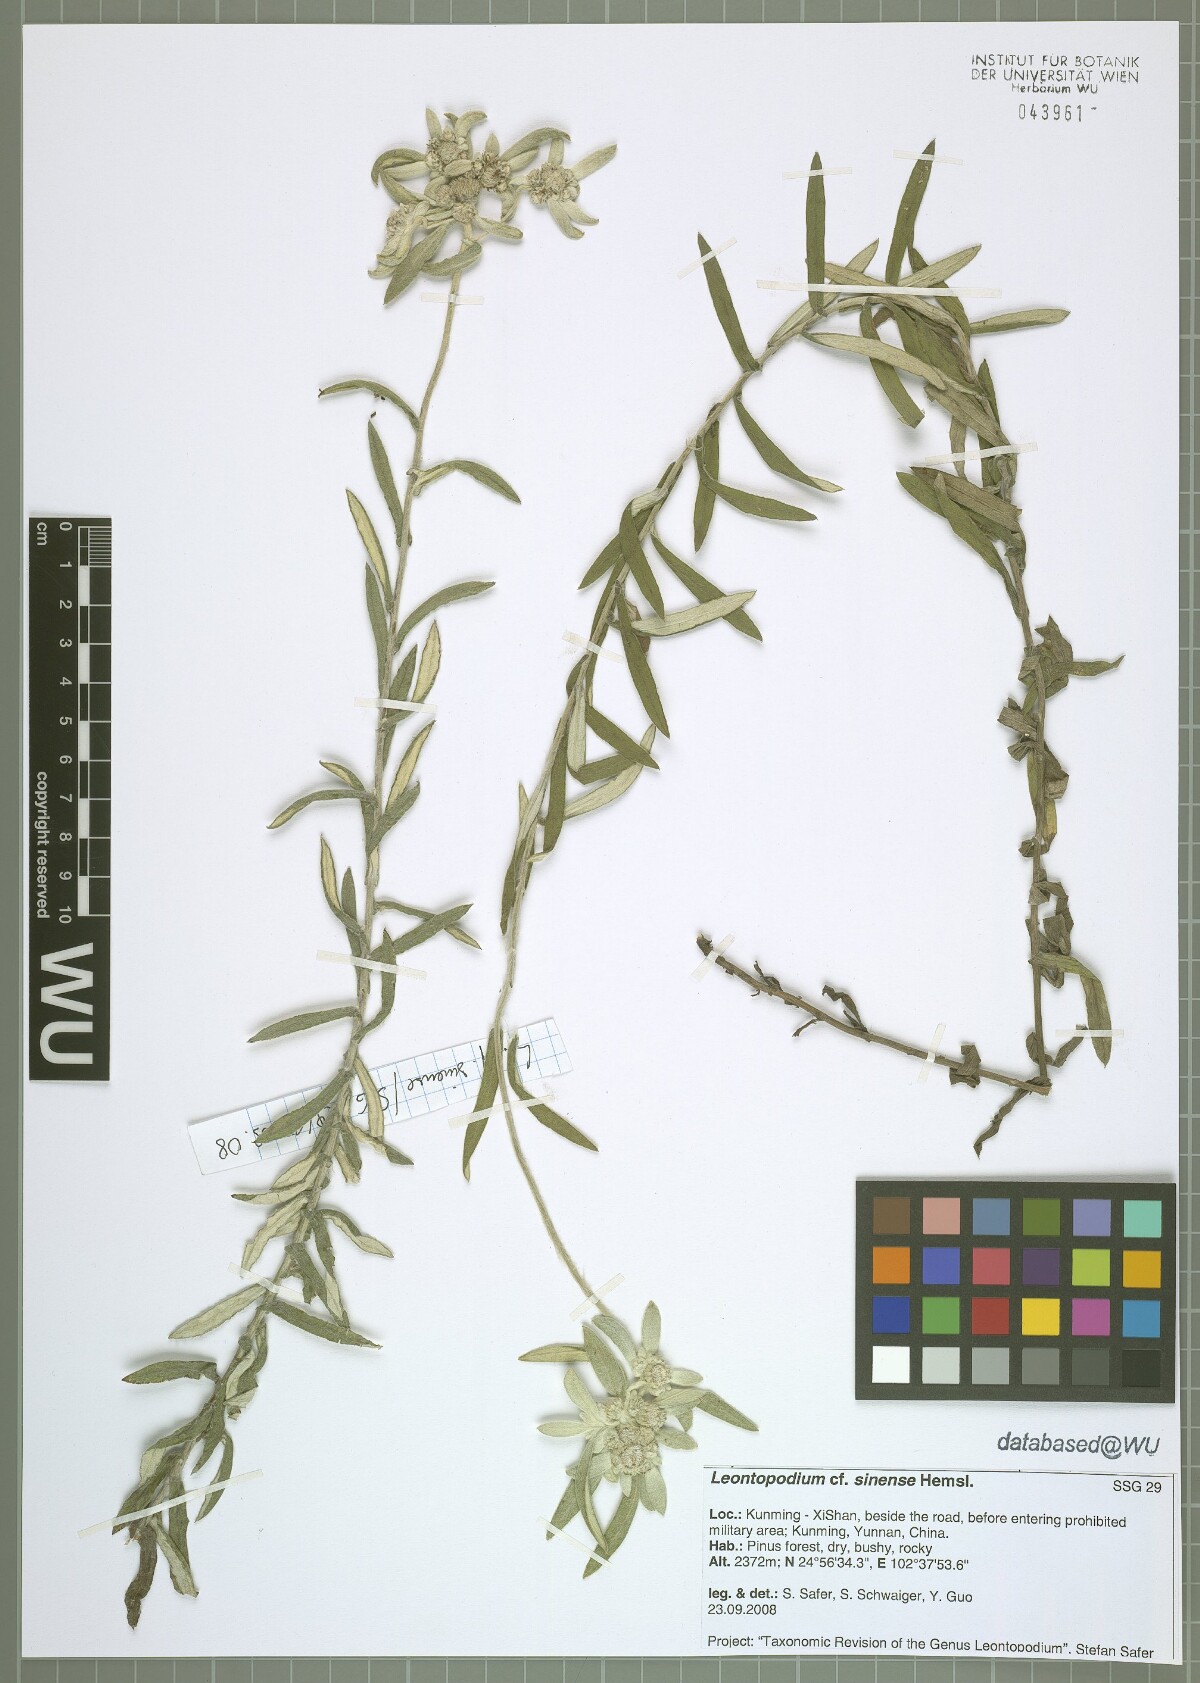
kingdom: Plantae
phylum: Tracheophyta
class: Magnoliopsida
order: Asterales
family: Asteraceae
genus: Leontopodium
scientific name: Leontopodium sinense
